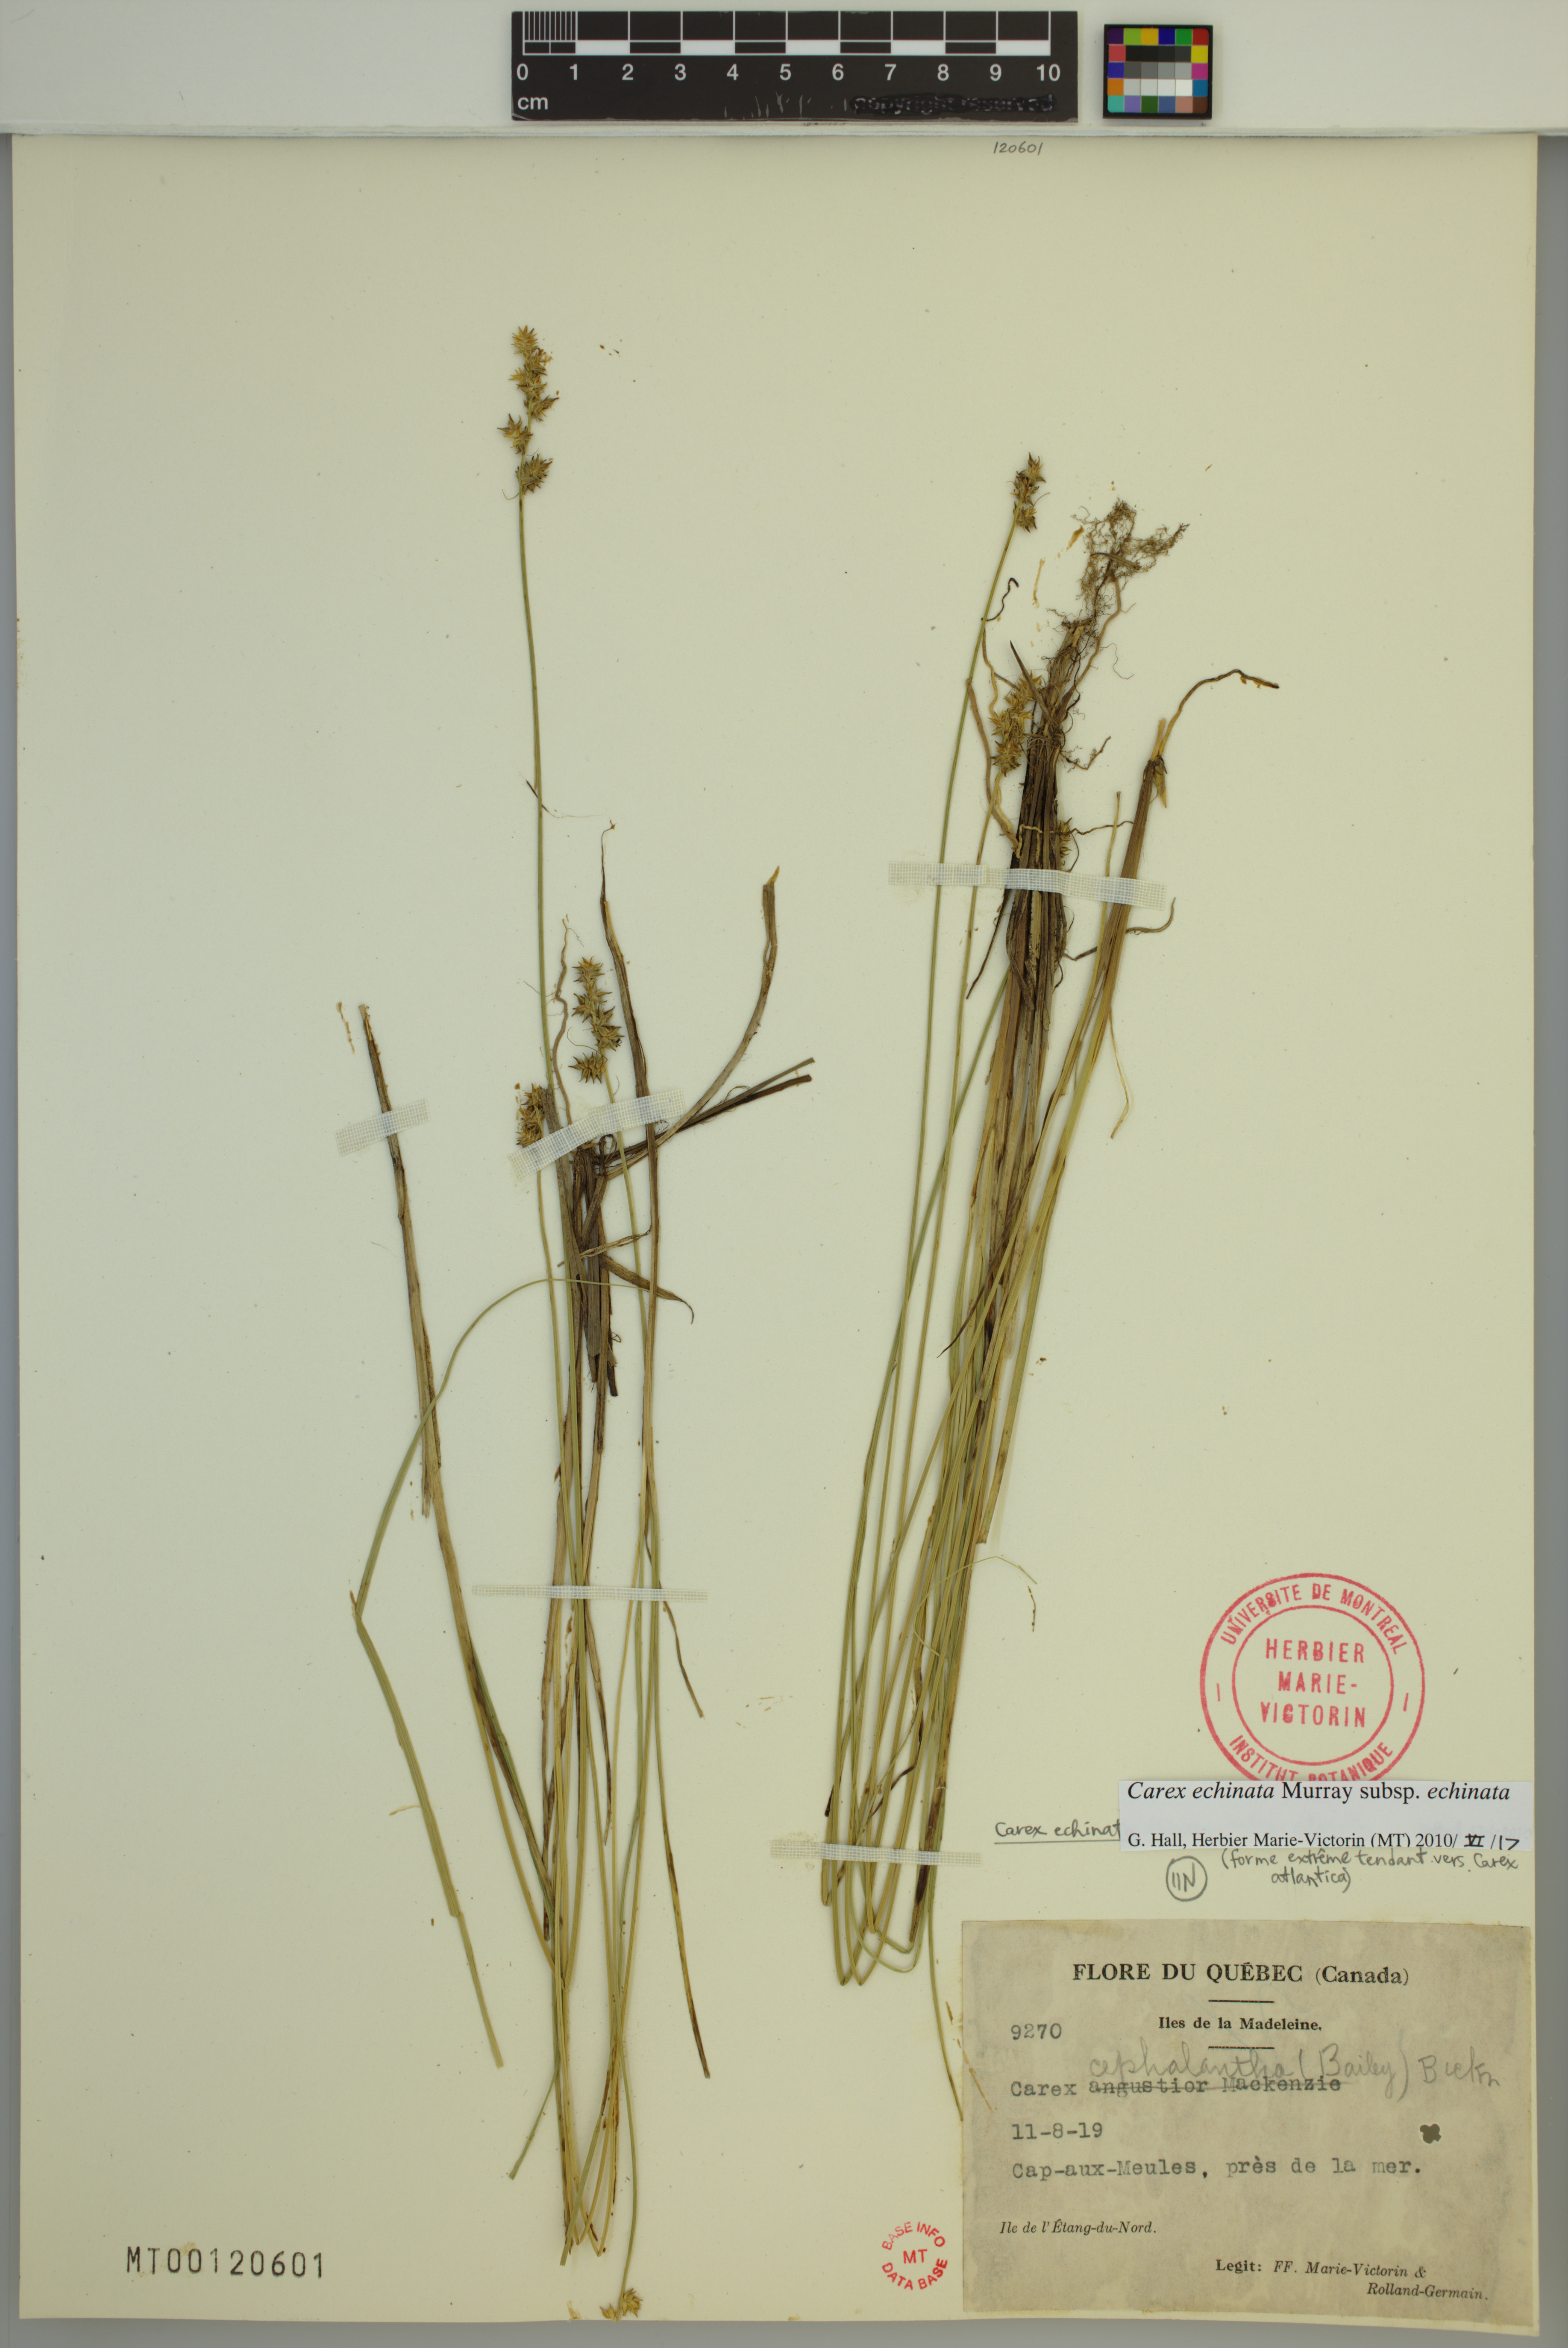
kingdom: Plantae
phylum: Tracheophyta
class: Liliopsida
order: Poales
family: Cyperaceae
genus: Carex
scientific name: Carex echinata
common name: Star sedge
